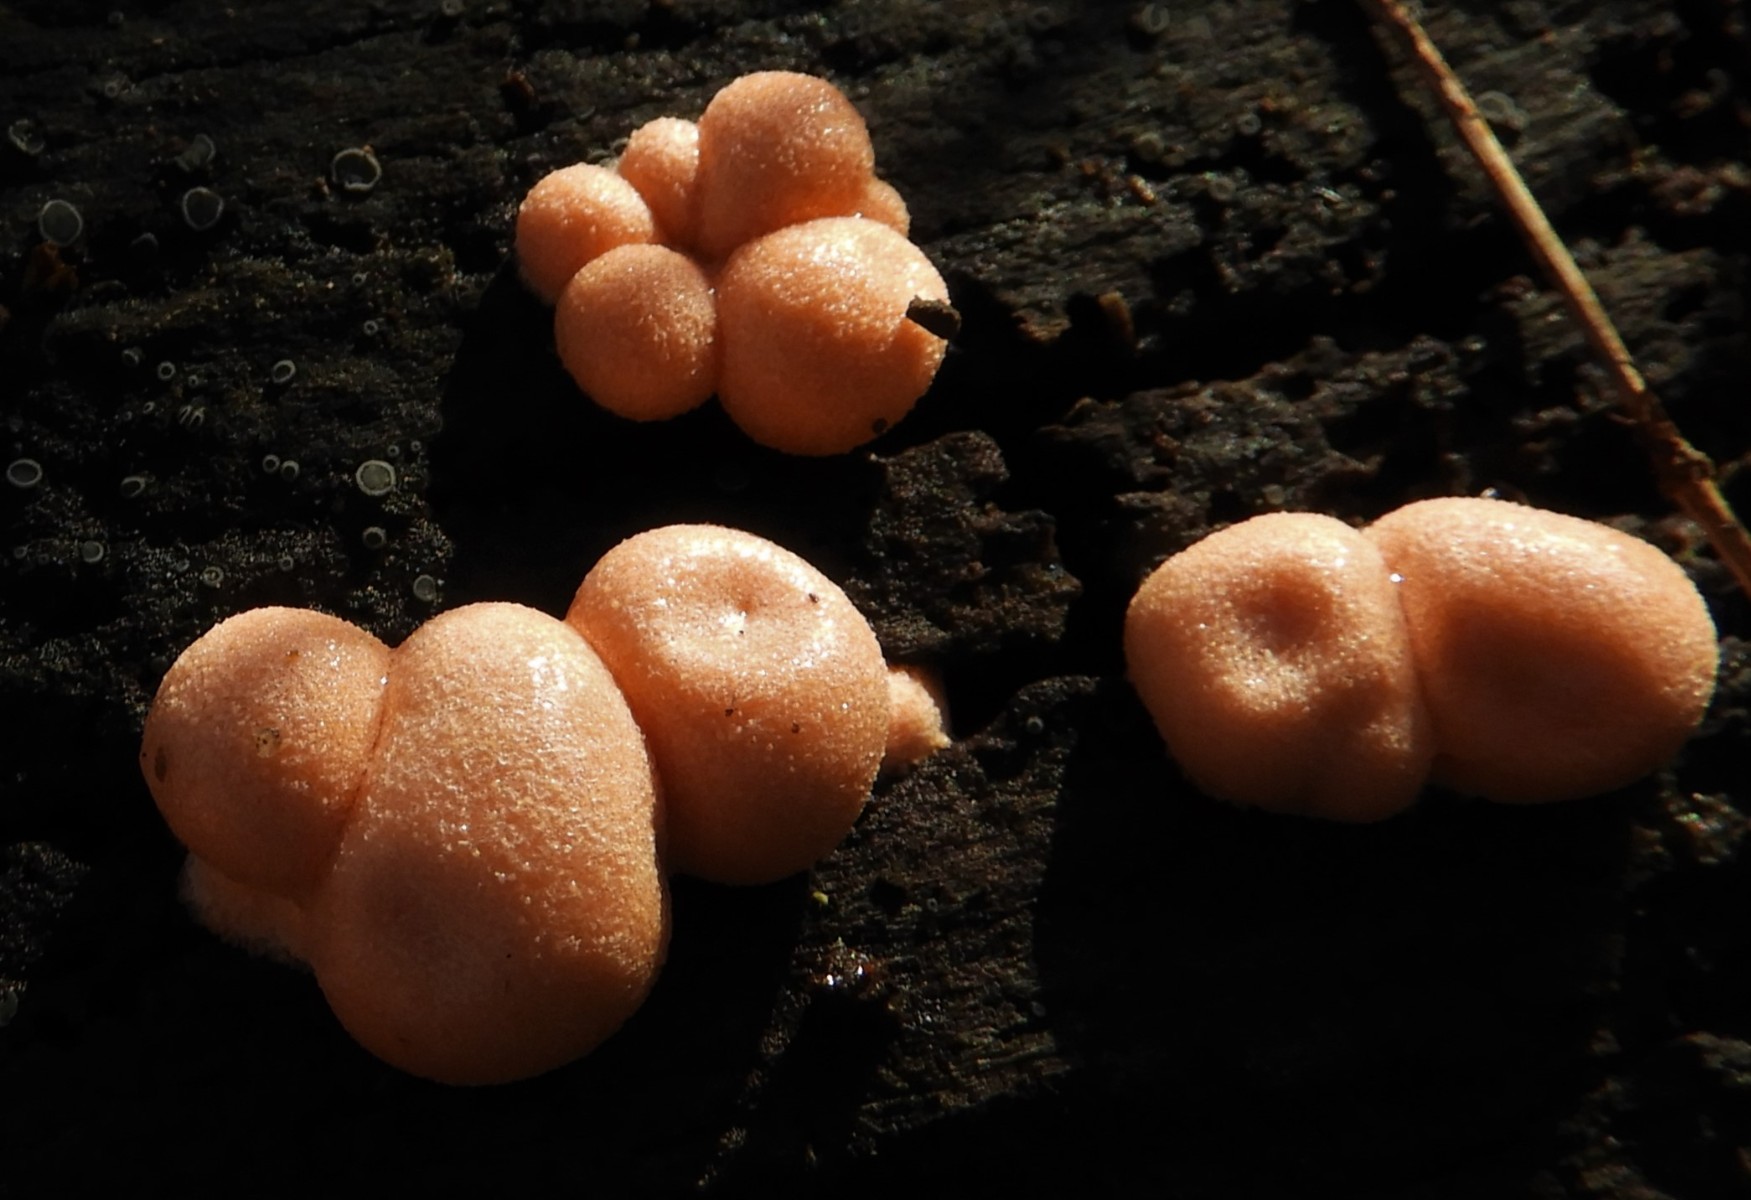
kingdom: Protozoa
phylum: Mycetozoa
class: Myxomycetes
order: Cribrariales
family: Tubiferaceae
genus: Lycogala
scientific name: Lycogala epidendrum
